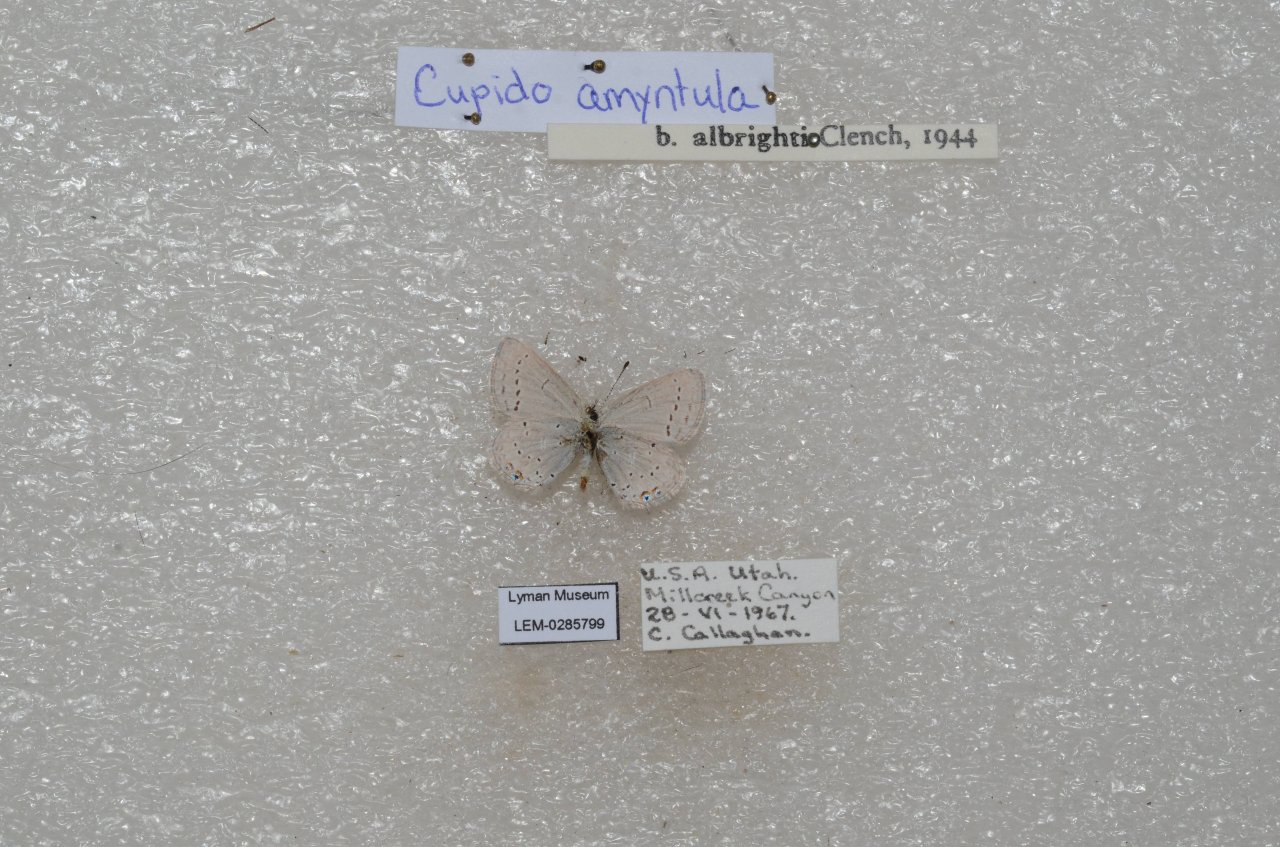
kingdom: Animalia
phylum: Arthropoda
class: Insecta
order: Lepidoptera
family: Lycaenidae
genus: Elkalyce
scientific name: Elkalyce amyntula
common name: Western Tailed-Blue
